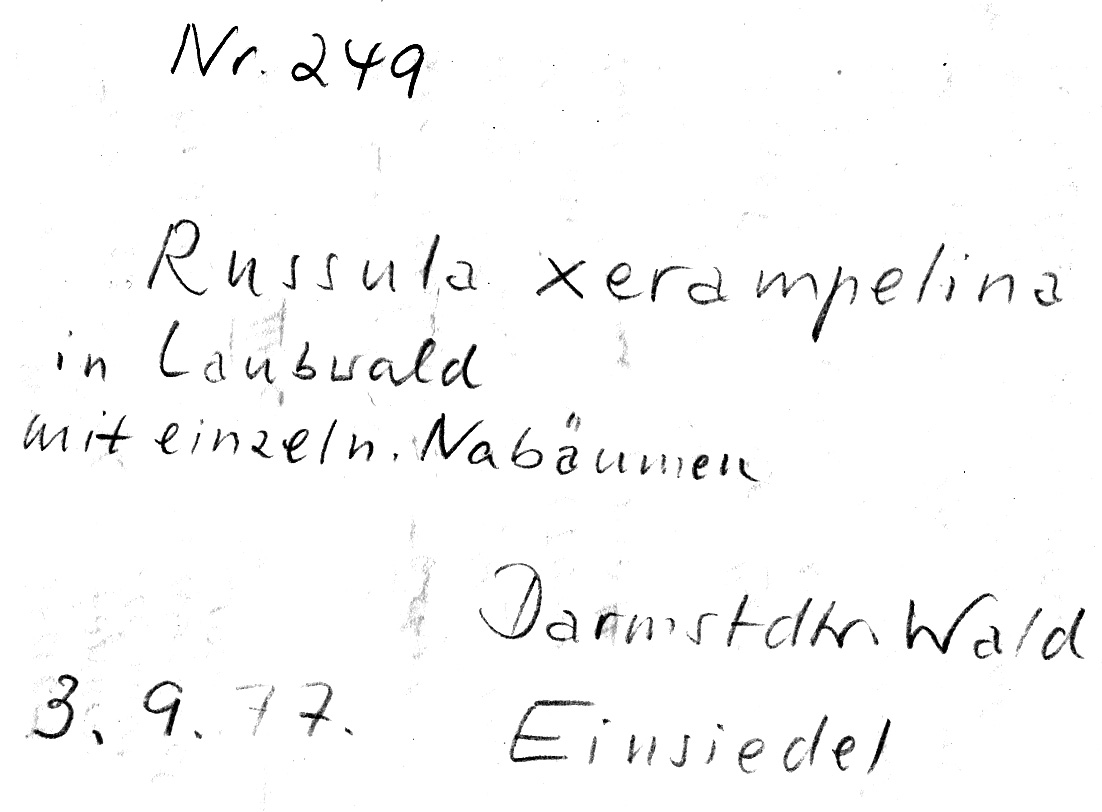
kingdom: Fungi
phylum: Basidiomycota
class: Agaricomycetes
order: Russulales
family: Russulaceae
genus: Russula
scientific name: Russula xerampelina
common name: Crab brittlegill
